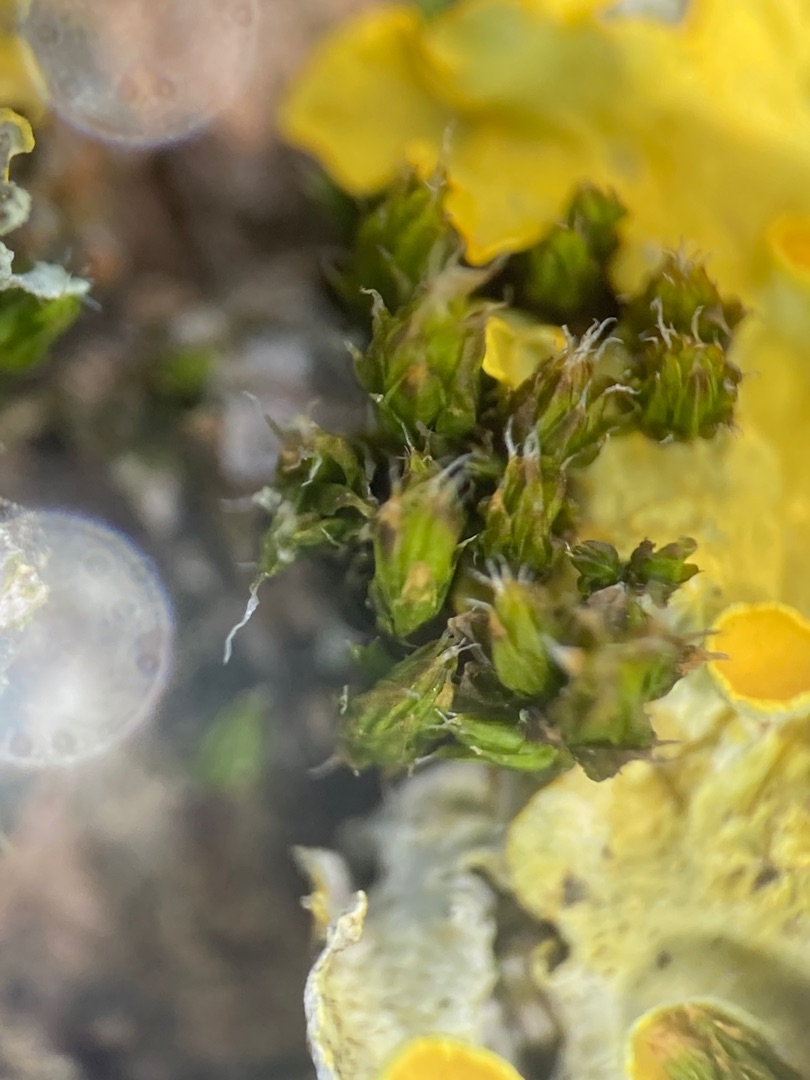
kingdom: Plantae
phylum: Bryophyta
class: Bryopsida
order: Orthotrichales
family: Orthotrichaceae
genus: Orthotrichum
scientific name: Orthotrichum diaphanum
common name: Hårspidset furehætte
